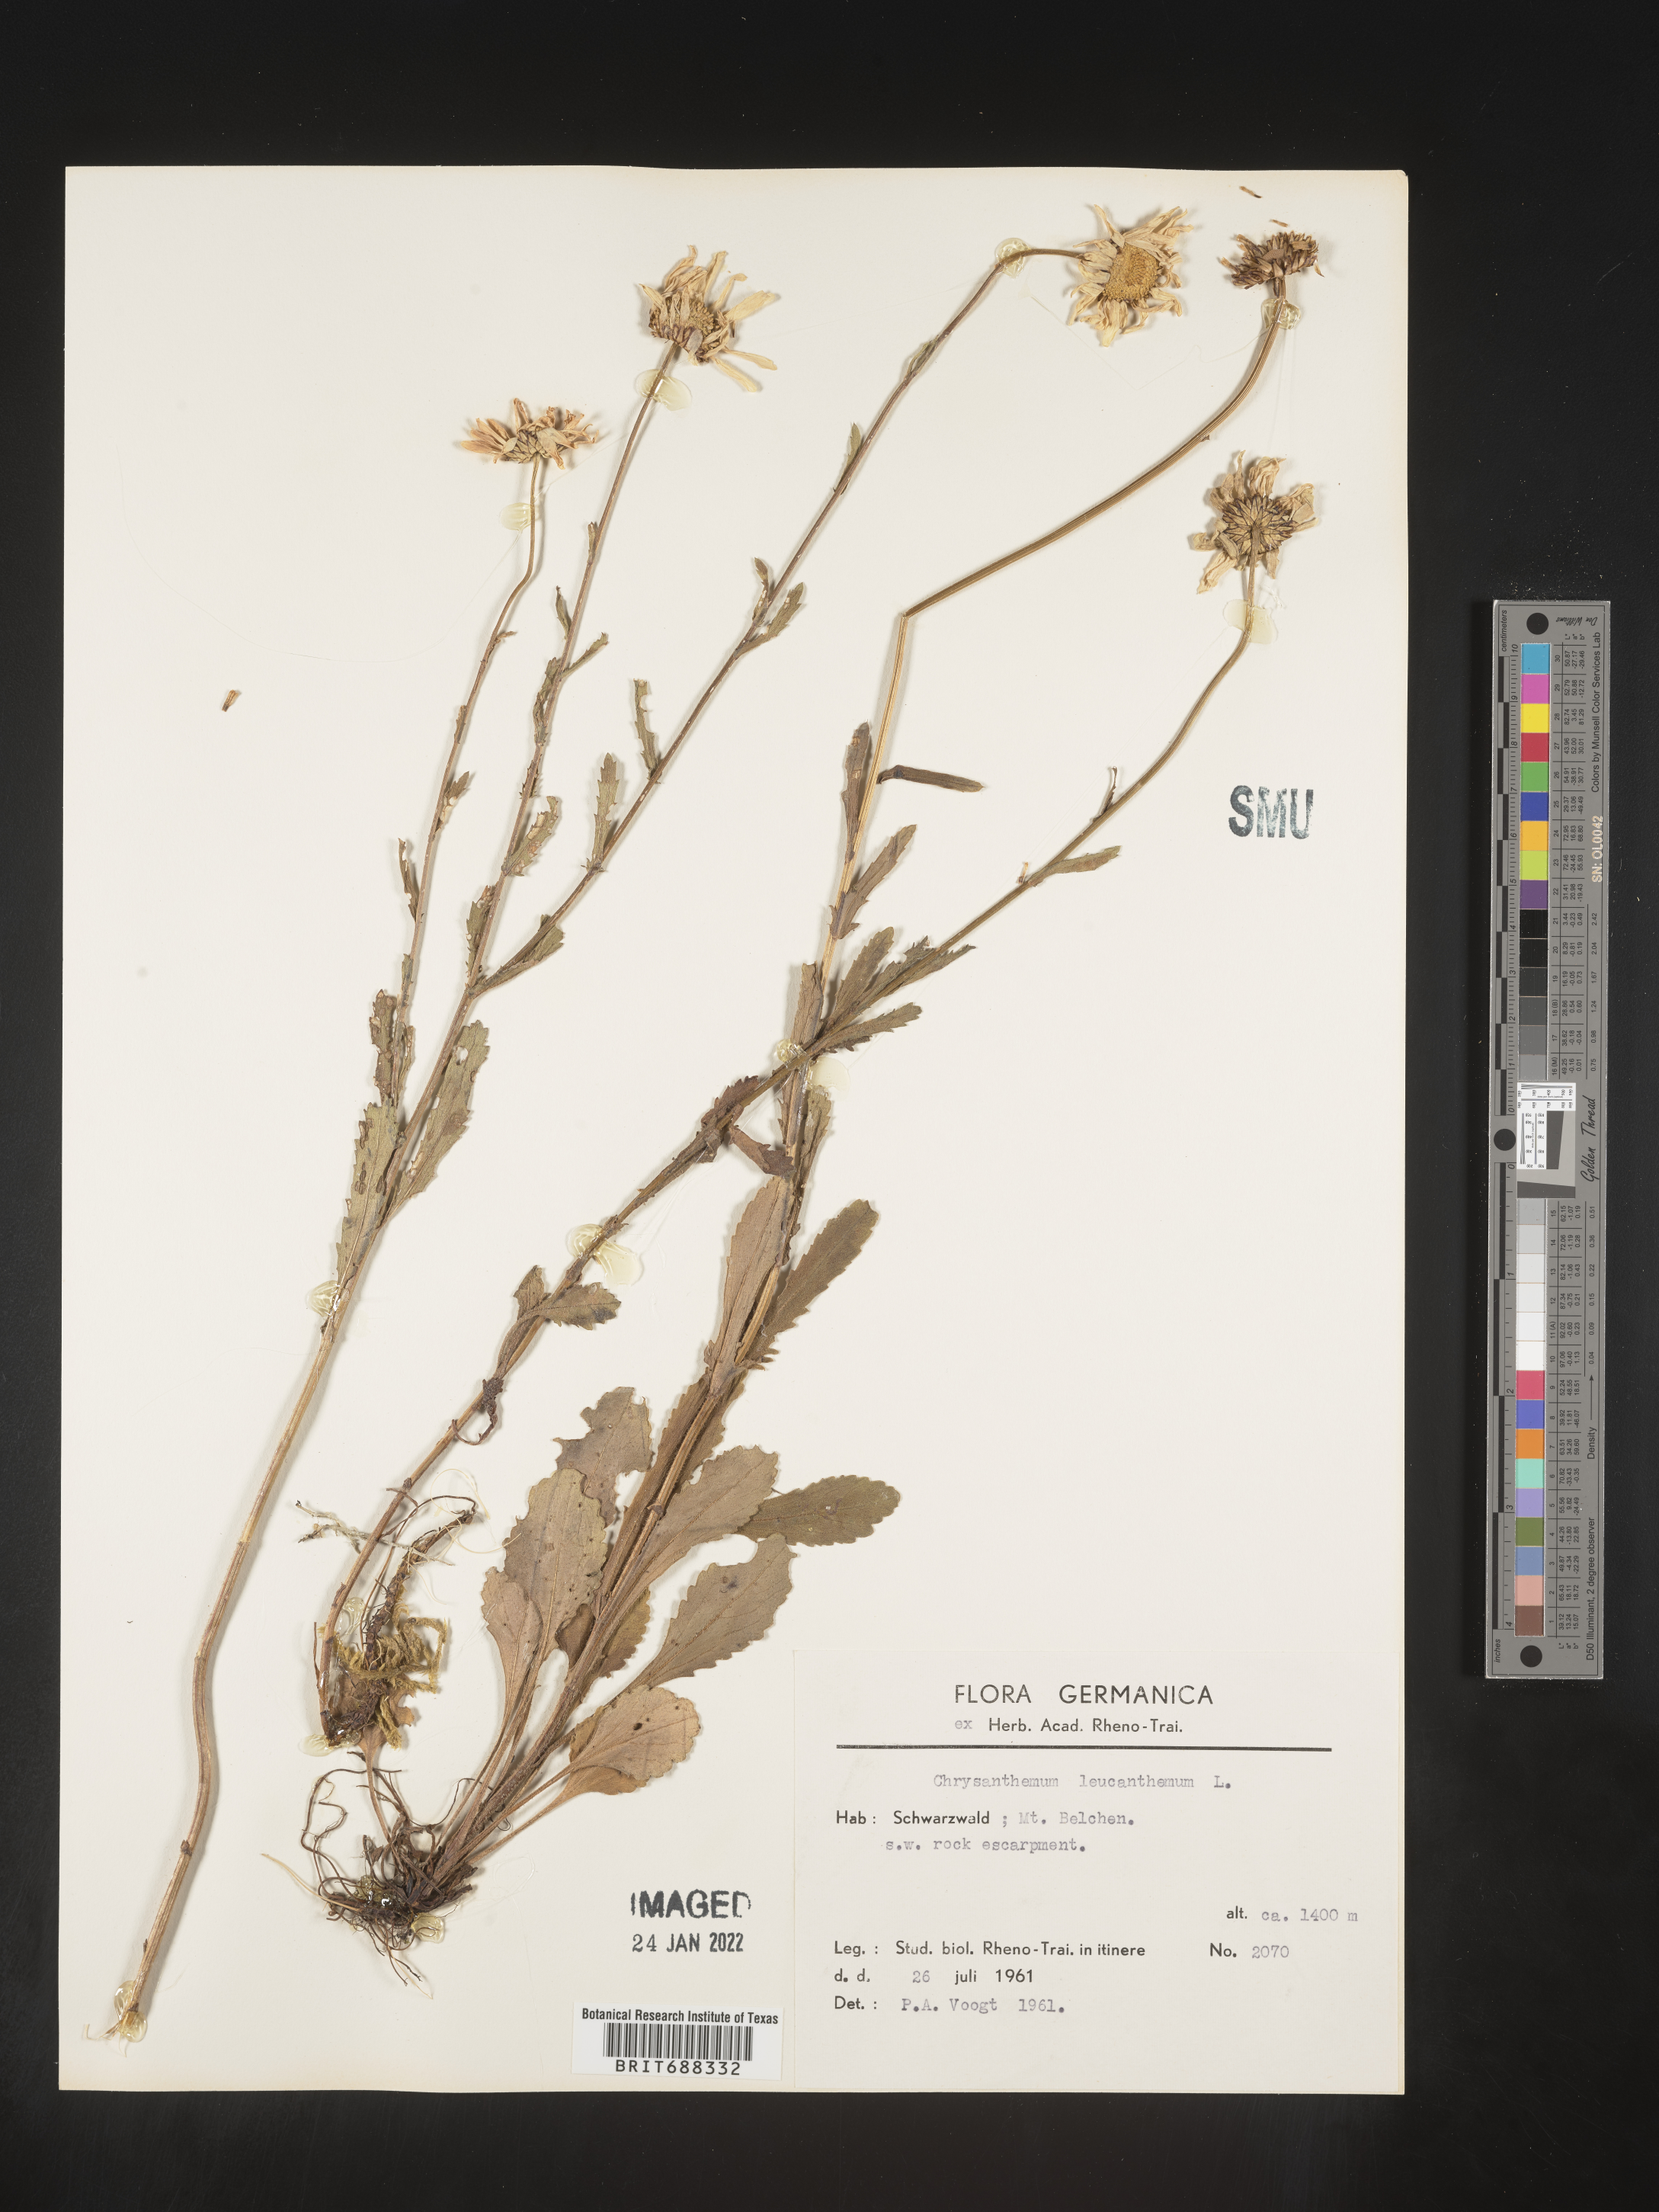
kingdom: Plantae
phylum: Tracheophyta
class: Magnoliopsida
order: Asterales
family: Asteraceae
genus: Chrysanthemum
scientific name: Chrysanthemum
